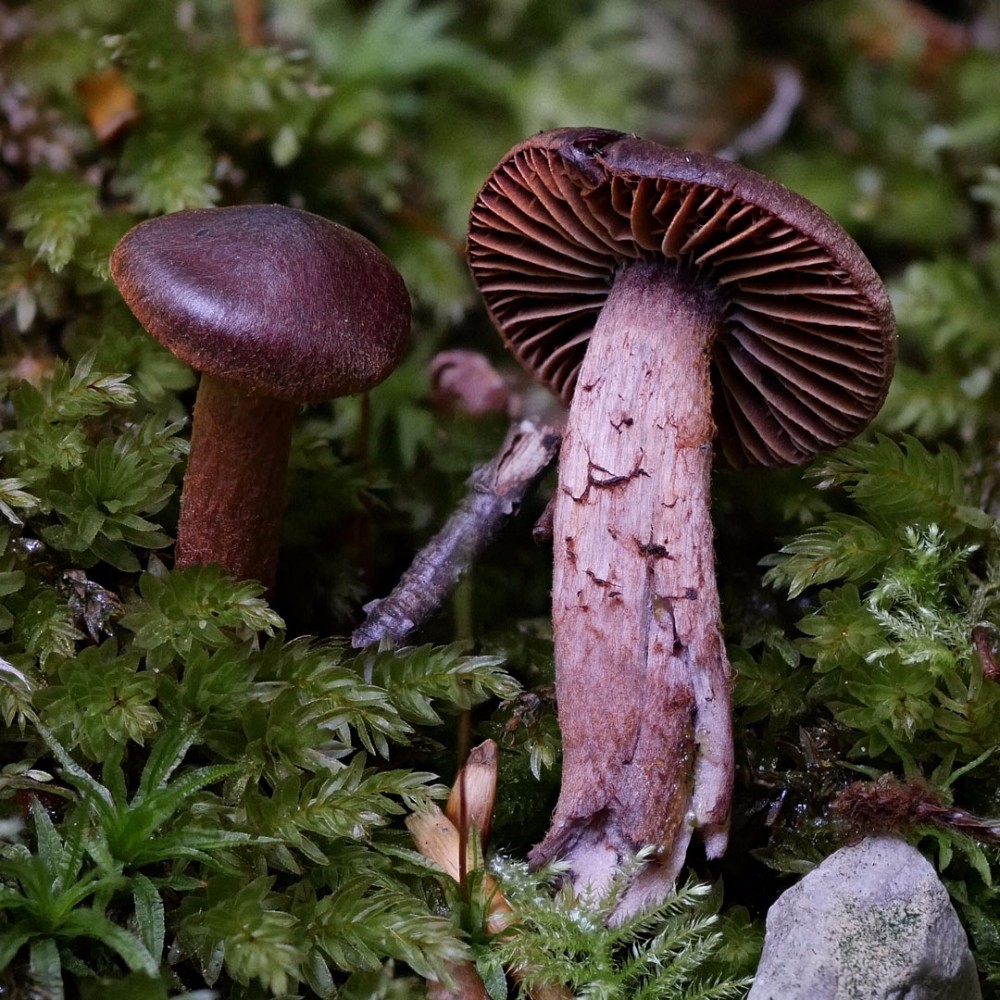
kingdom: Fungi
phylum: Basidiomycota
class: Agaricomycetes
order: Agaricales
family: Cortinariaceae
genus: Cortinarius
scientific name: Cortinarius anthracinus
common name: purpursort slørhat
